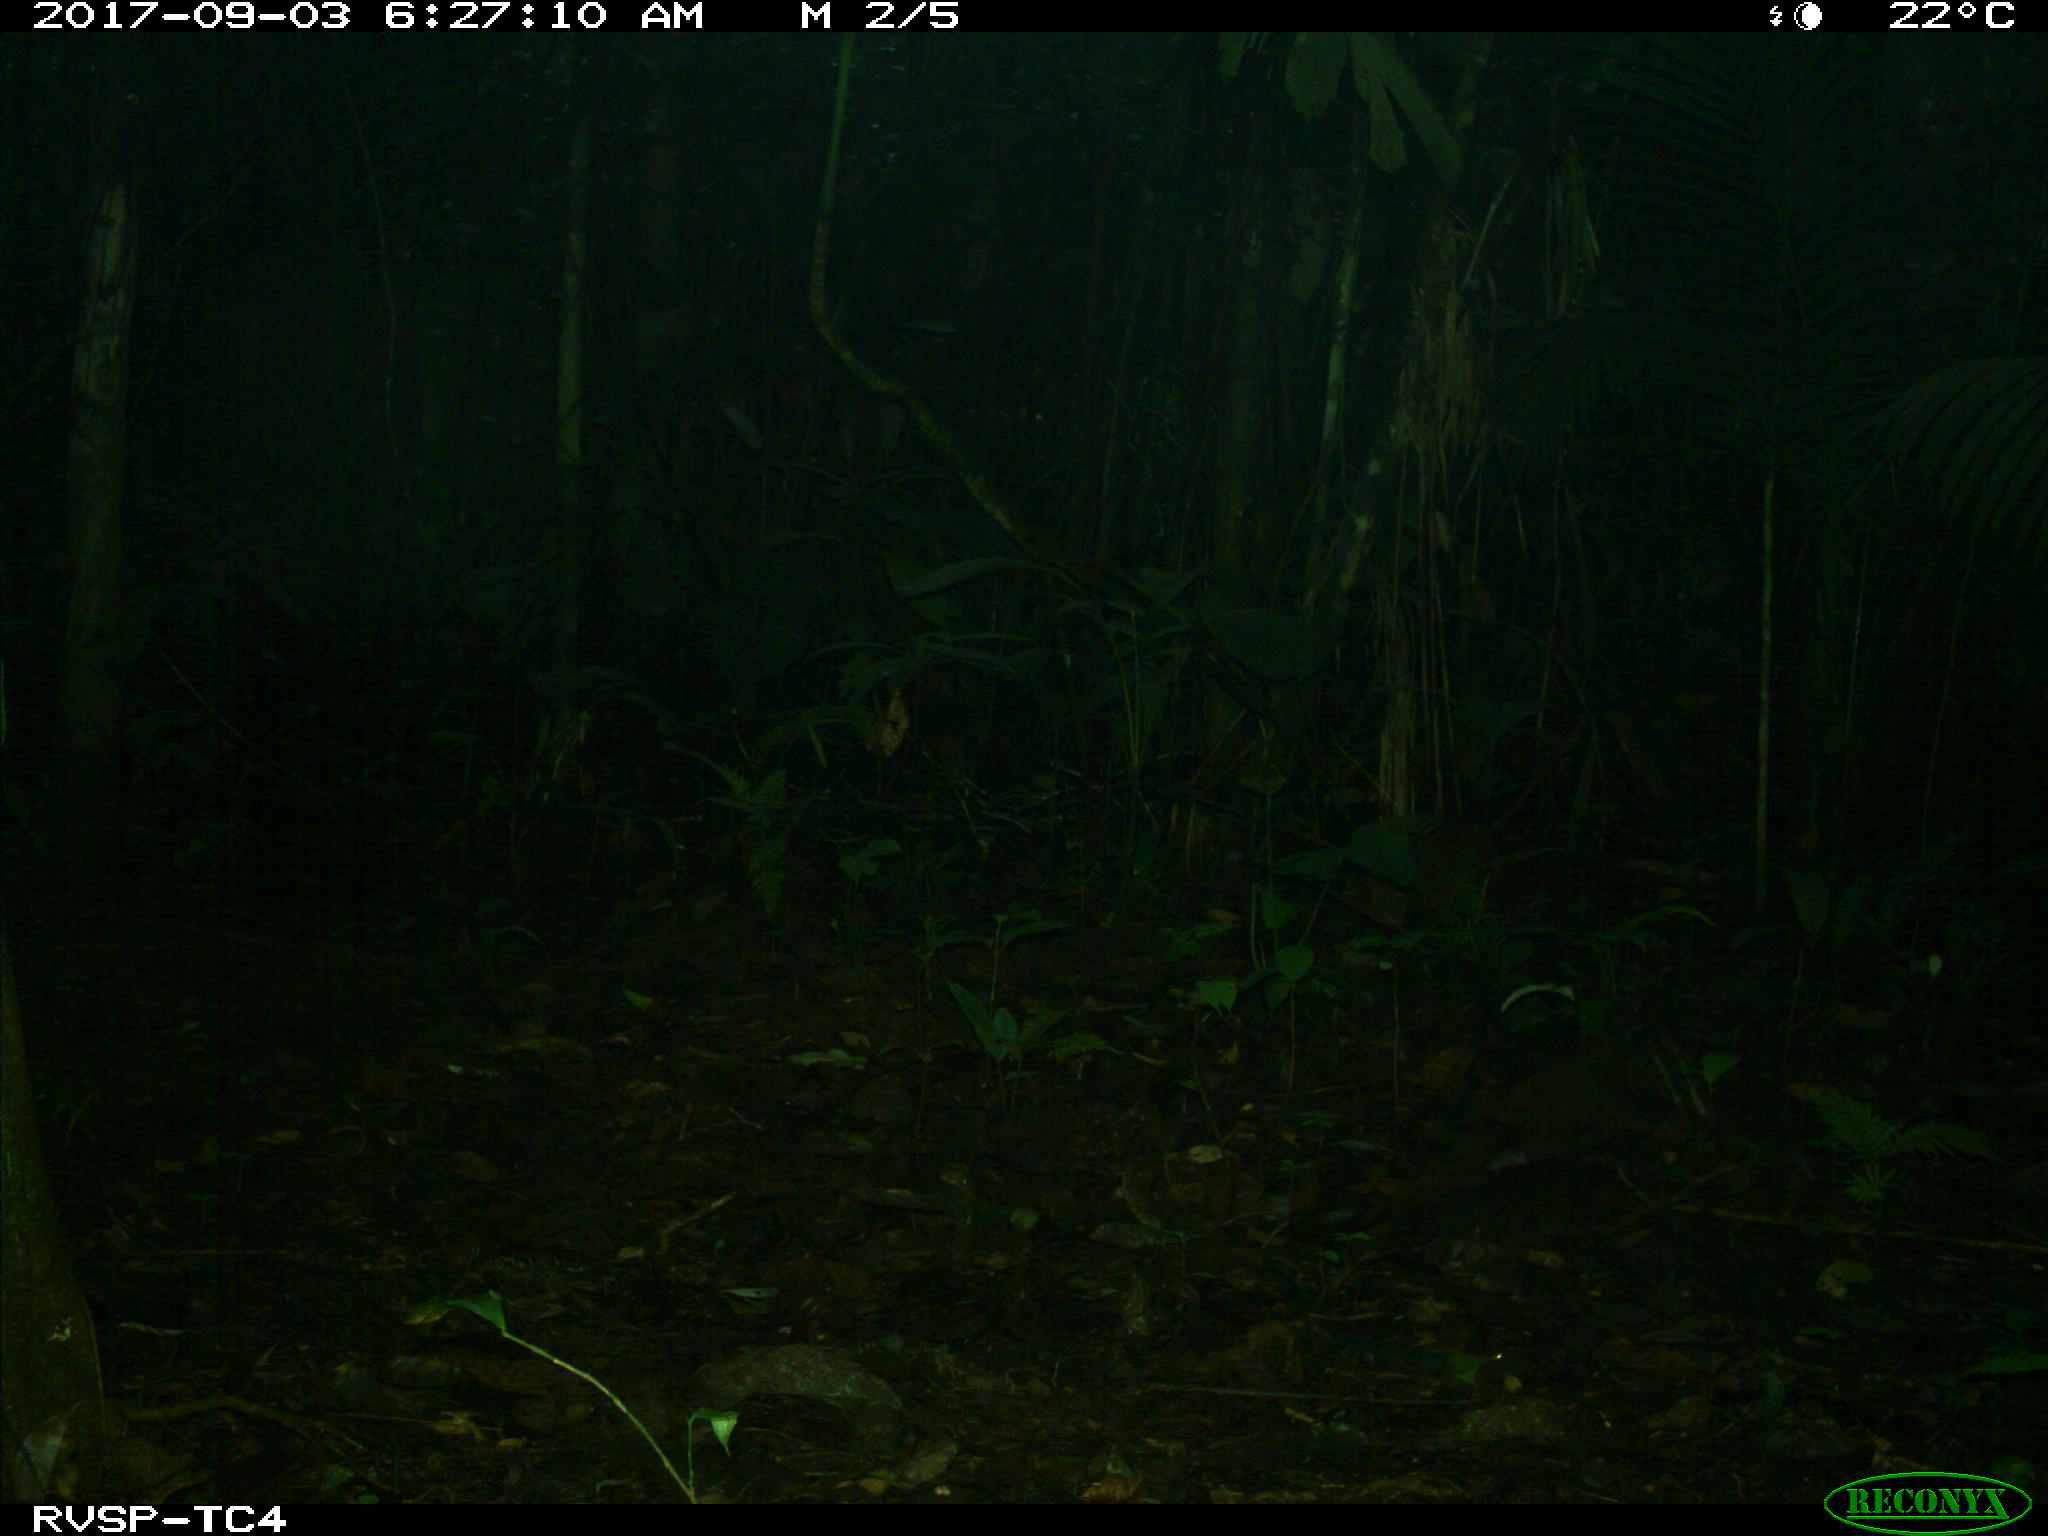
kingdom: Animalia
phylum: Chordata
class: Mammalia
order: Rodentia
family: Dasyproctidae
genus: Dasyprocta
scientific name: Dasyprocta punctata
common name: Central american agouti
